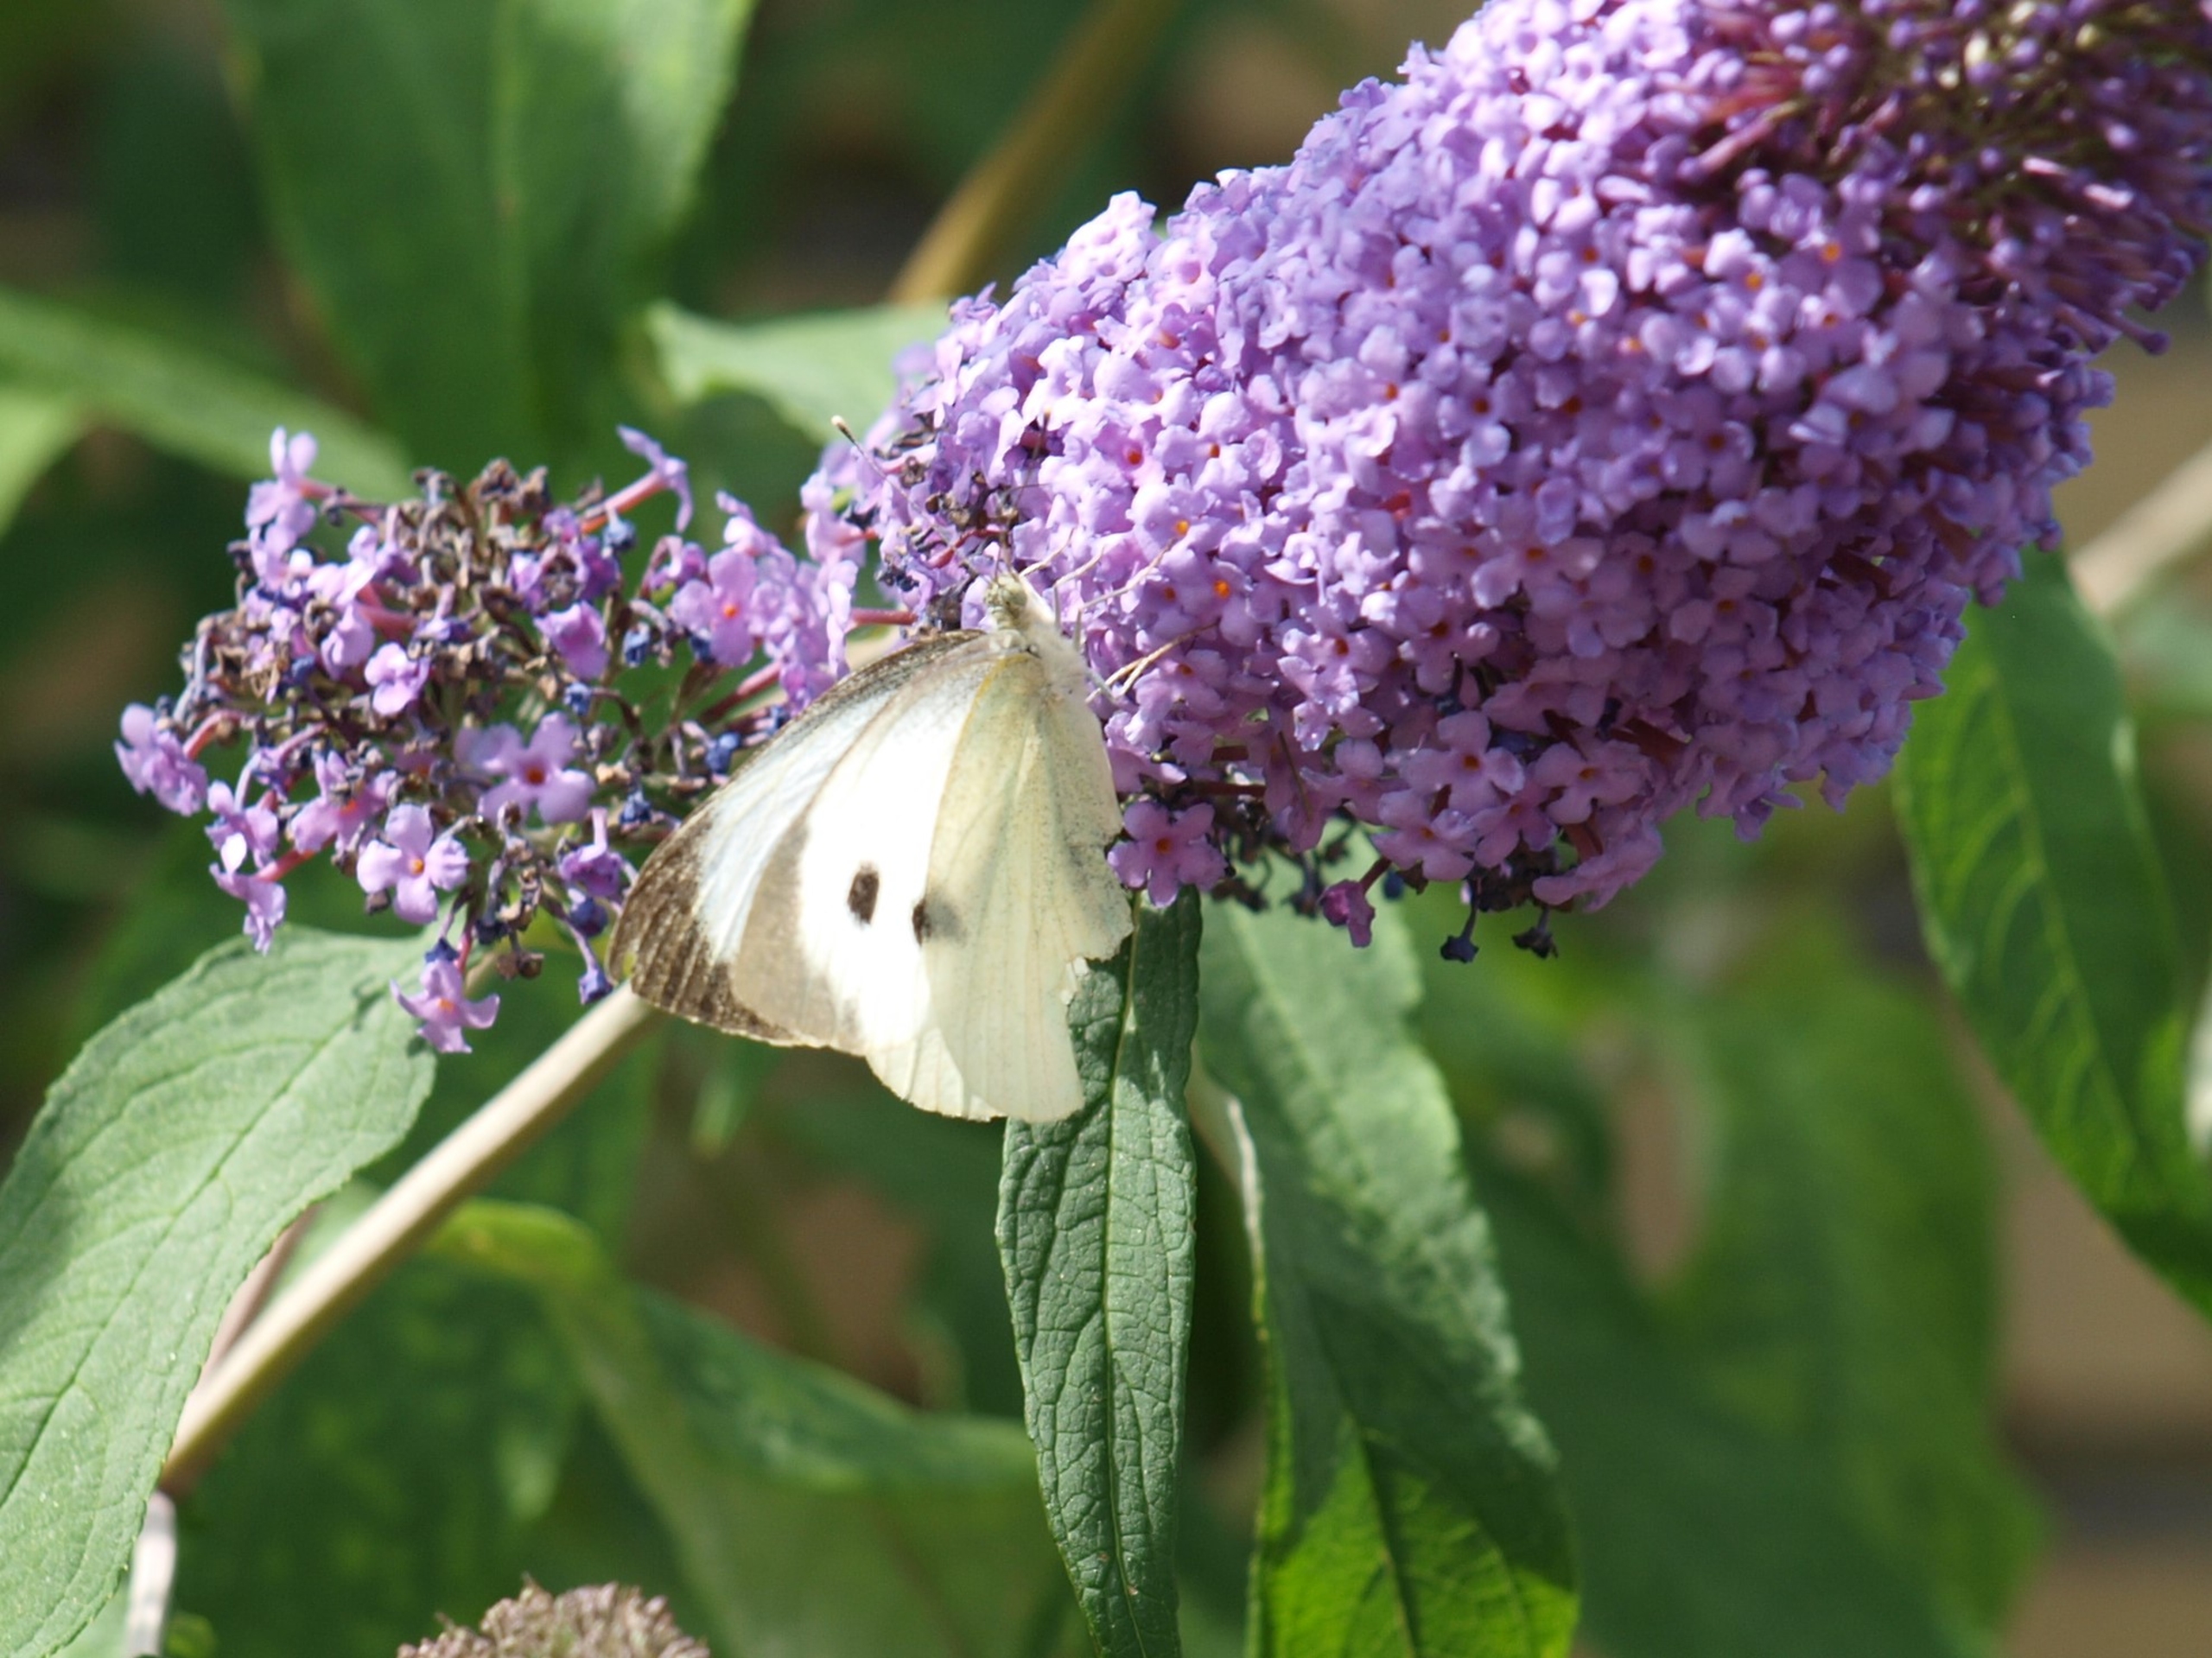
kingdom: Animalia
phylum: Arthropoda
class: Insecta
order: Lepidoptera
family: Pieridae
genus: Pieris
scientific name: Pieris brassicae
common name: Stor kålsommerfugl
